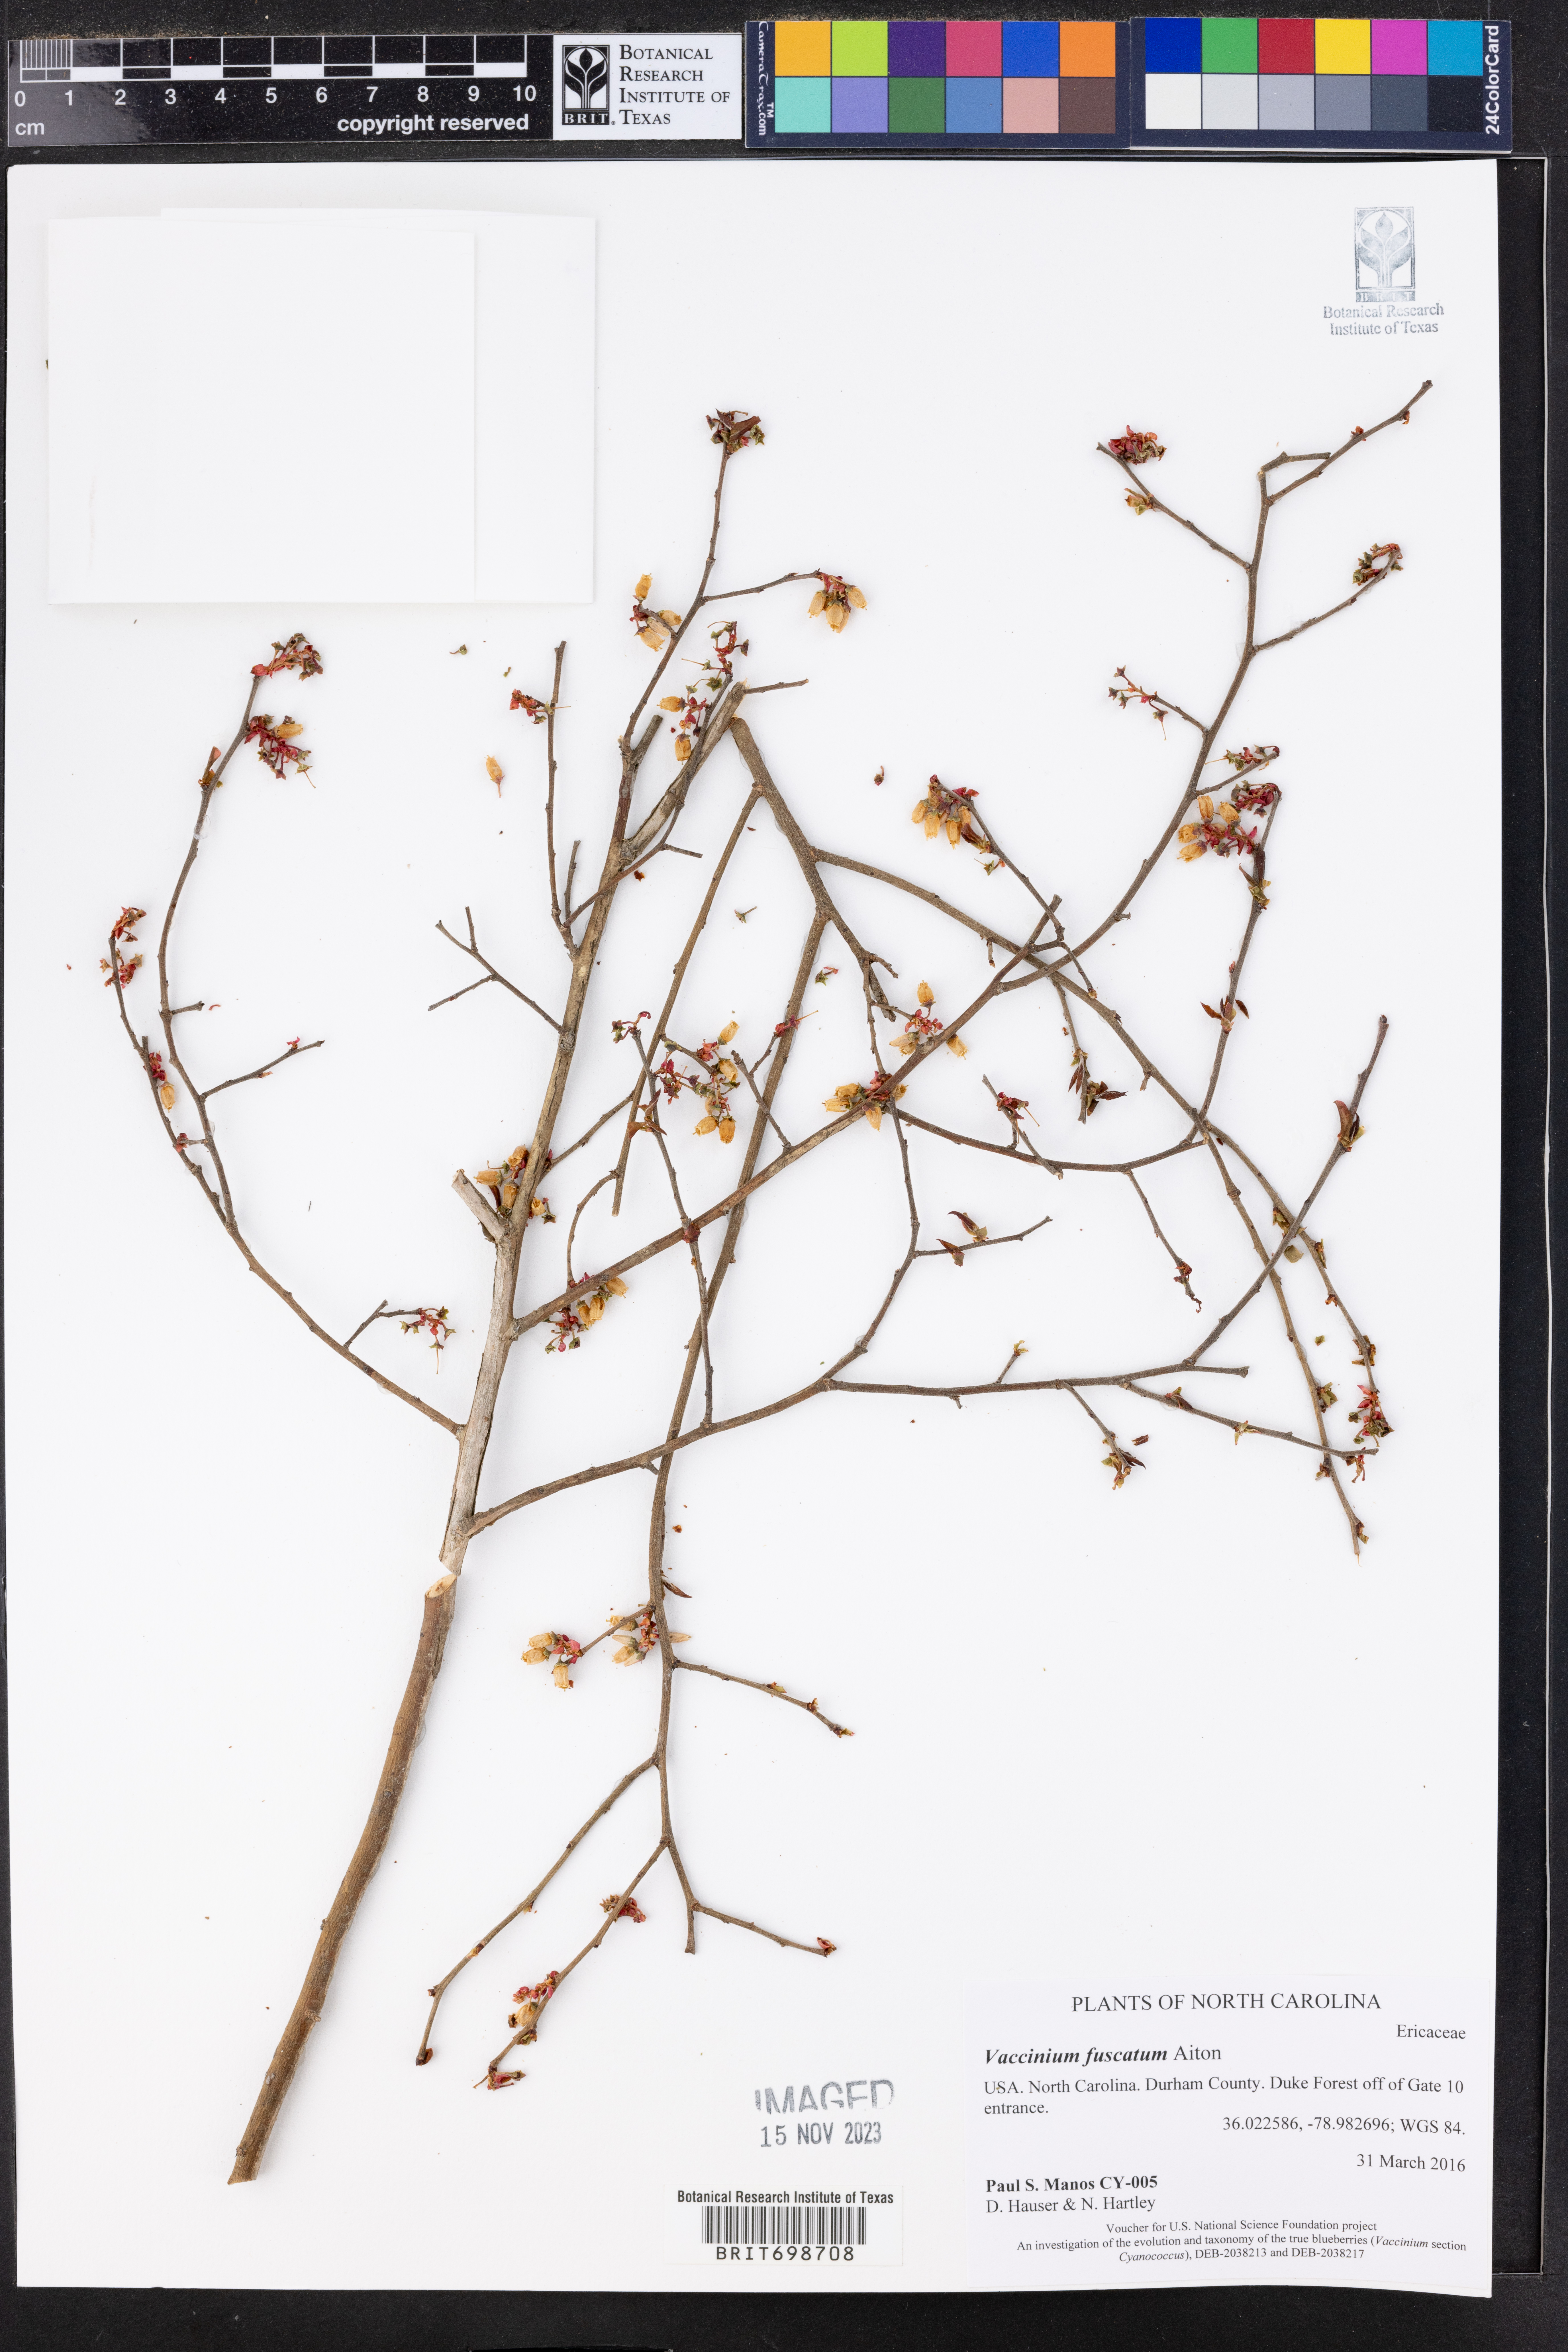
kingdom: Plantae
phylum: Tracheophyta
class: Magnoliopsida
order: Ericales
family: Ericaceae
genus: Vaccinium
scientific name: Vaccinium corymbosum
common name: Blueberry
